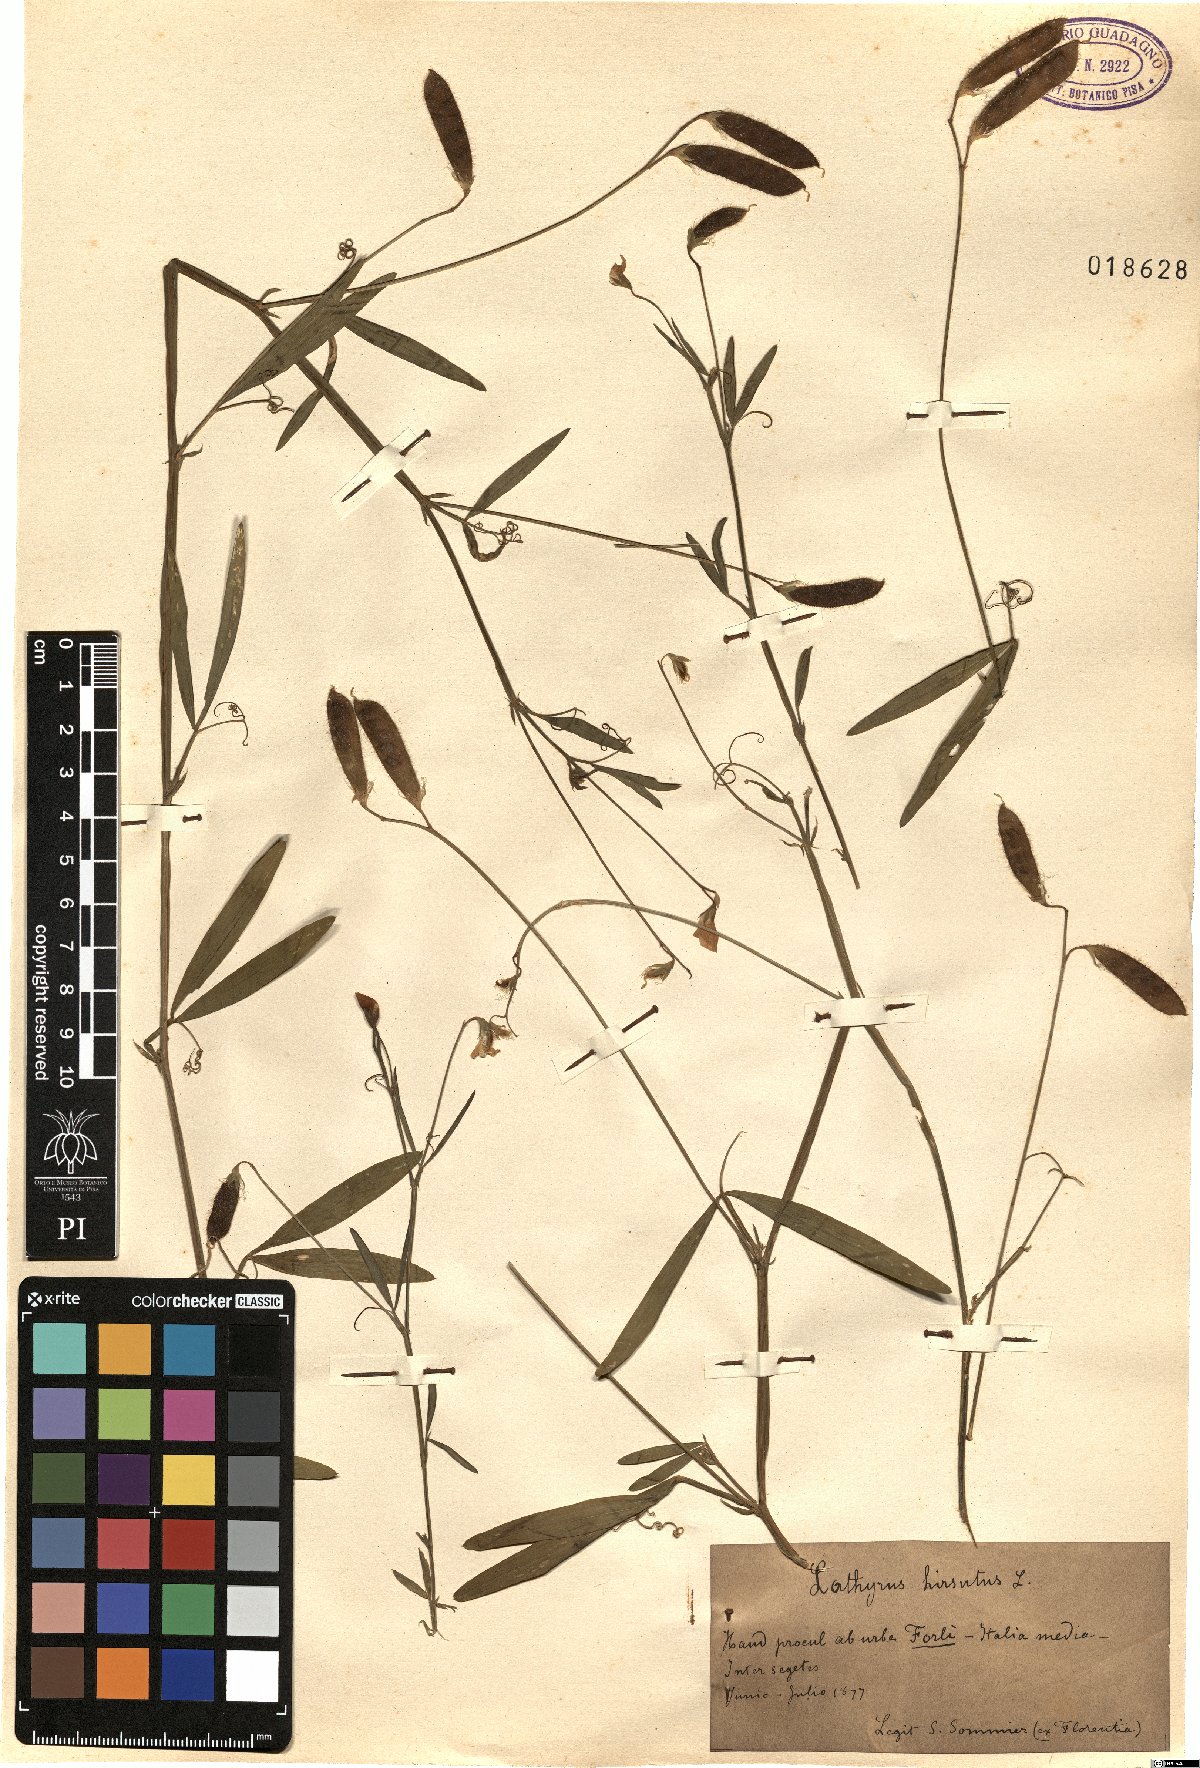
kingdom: Plantae
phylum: Tracheophyta
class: Magnoliopsida
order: Fabales
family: Fabaceae
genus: Lathyrus
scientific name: Lathyrus hirsutus
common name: Hairy vetchling
